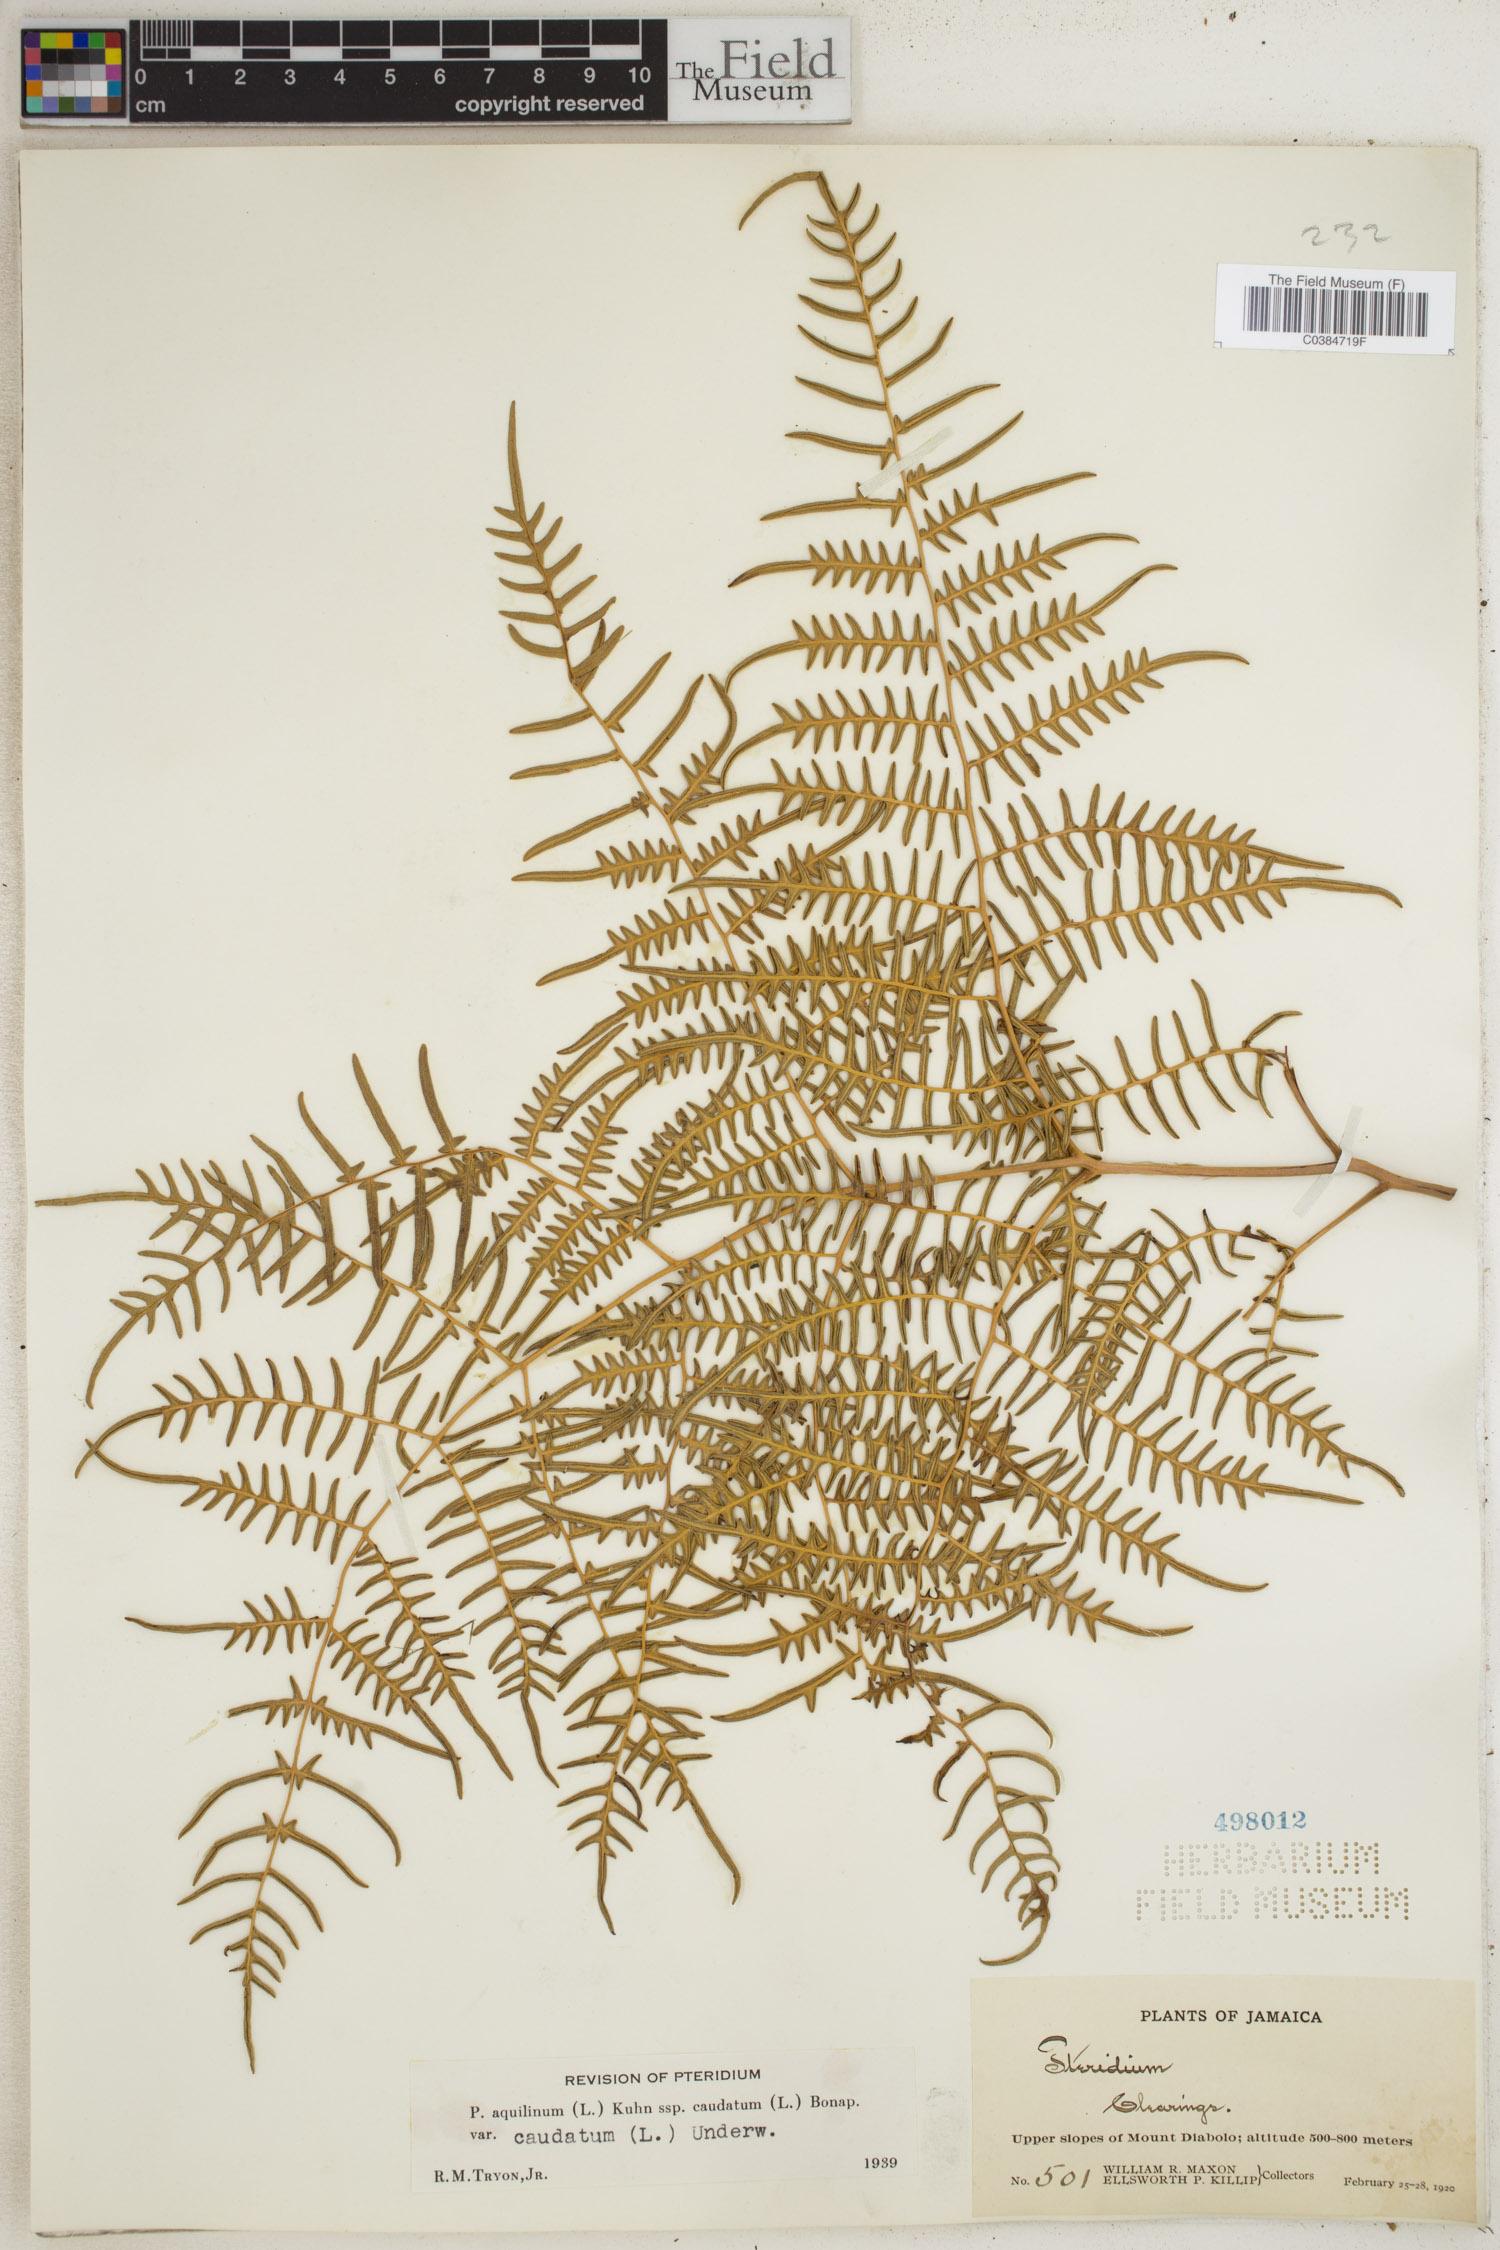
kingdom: Plantae
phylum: Tracheophyta
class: Polypodiopsida
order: Polypodiales
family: Dennstaedtiaceae
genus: Pteridium
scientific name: Pteridium caudatum
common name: Southern bracken fern
